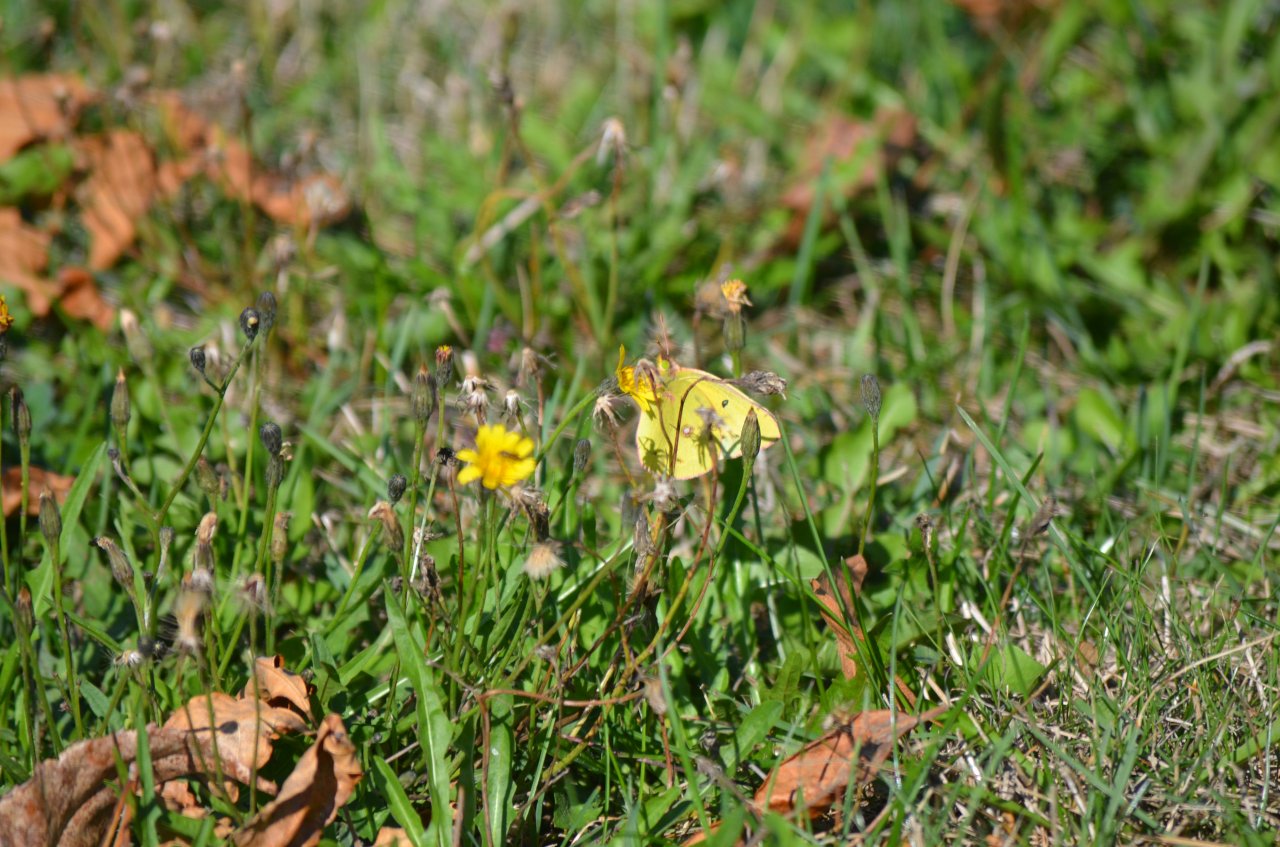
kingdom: Animalia
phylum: Arthropoda
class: Insecta
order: Lepidoptera
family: Pieridae
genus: Colias
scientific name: Colias philodice
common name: Clouded Sulphur
